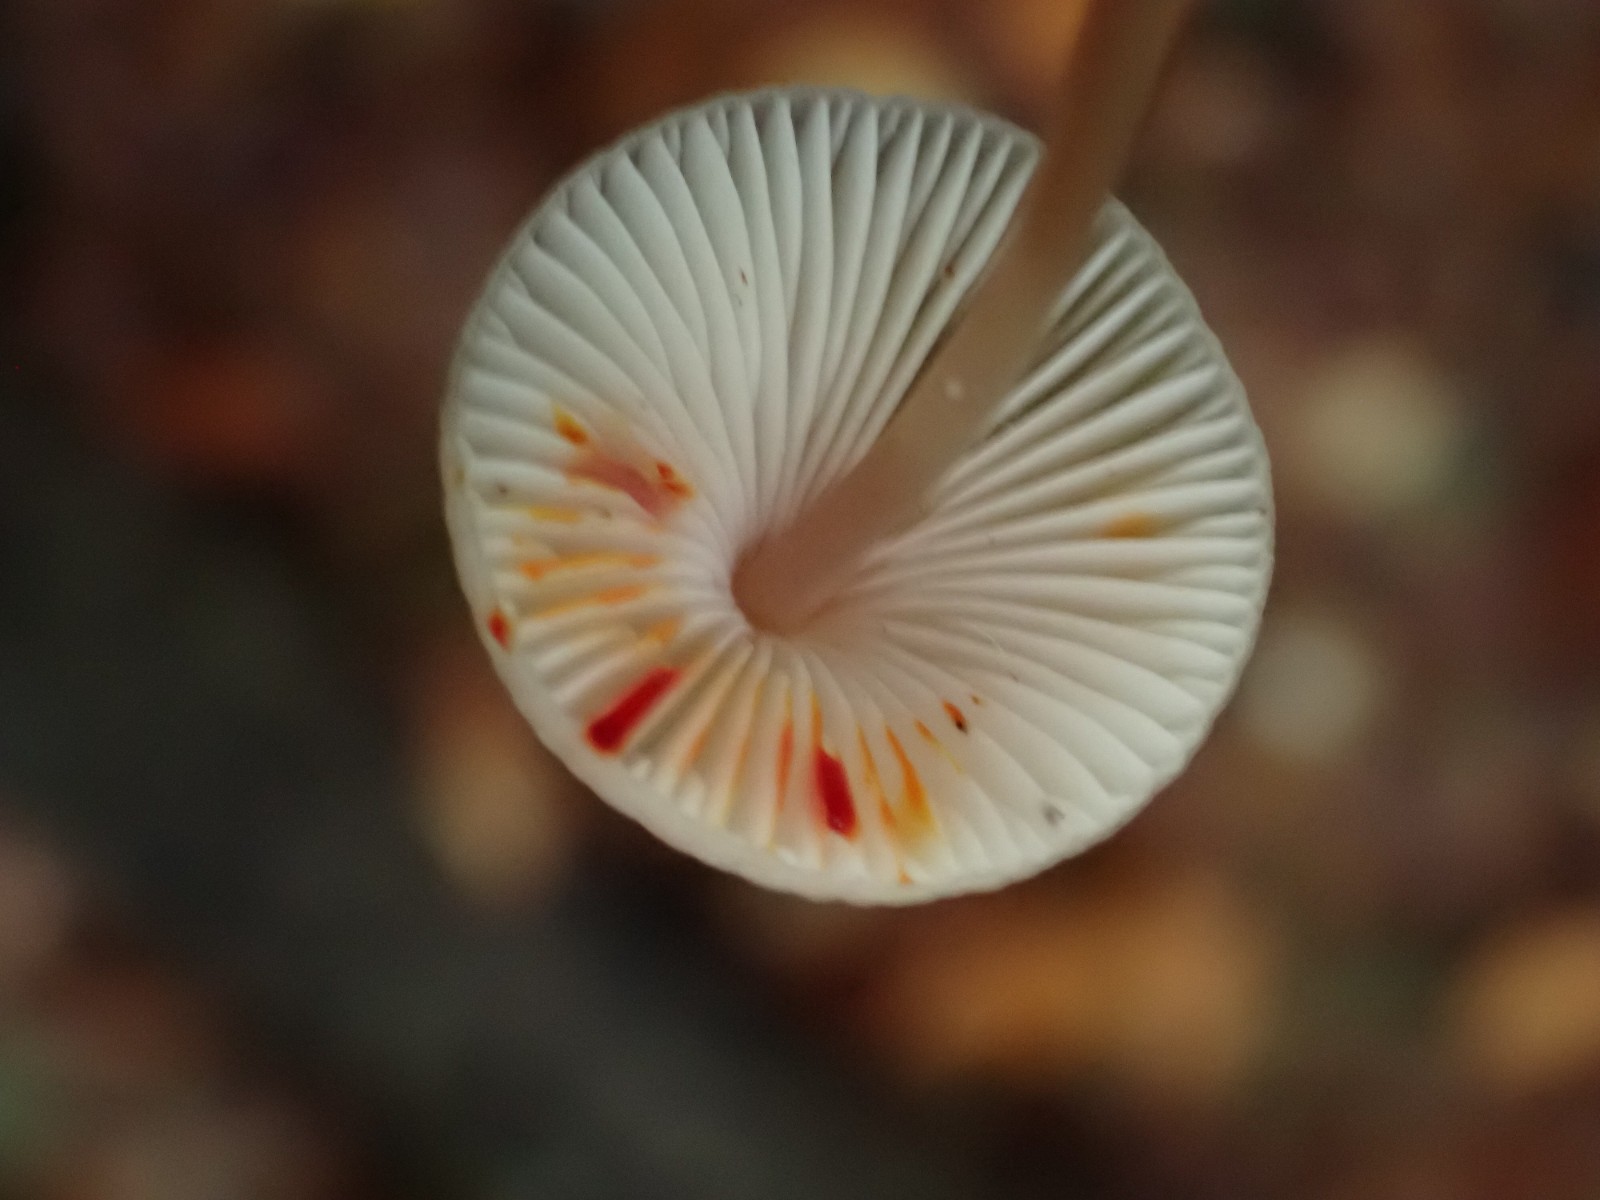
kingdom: Fungi
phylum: Basidiomycota
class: Agaricomycetes
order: Agaricales
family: Mycenaceae
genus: Mycena
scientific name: Mycena crocata
